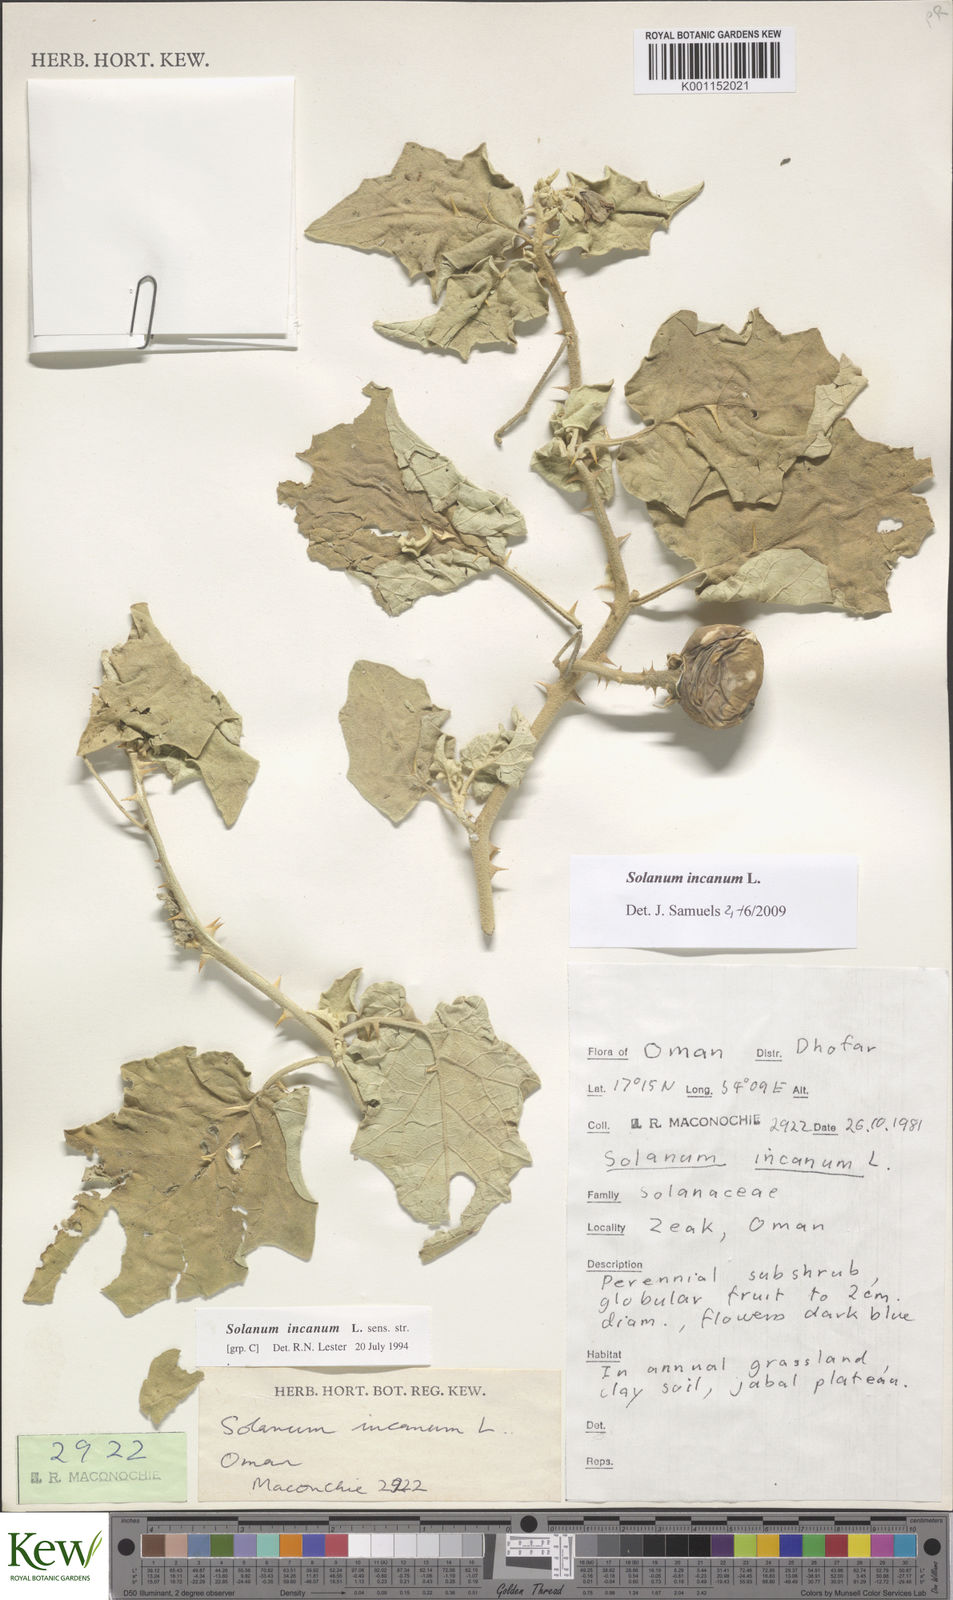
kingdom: Plantae
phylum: Tracheophyta
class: Magnoliopsida
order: Solanales
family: Solanaceae
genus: Solanum
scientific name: Solanum incanum
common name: Bitter apple
